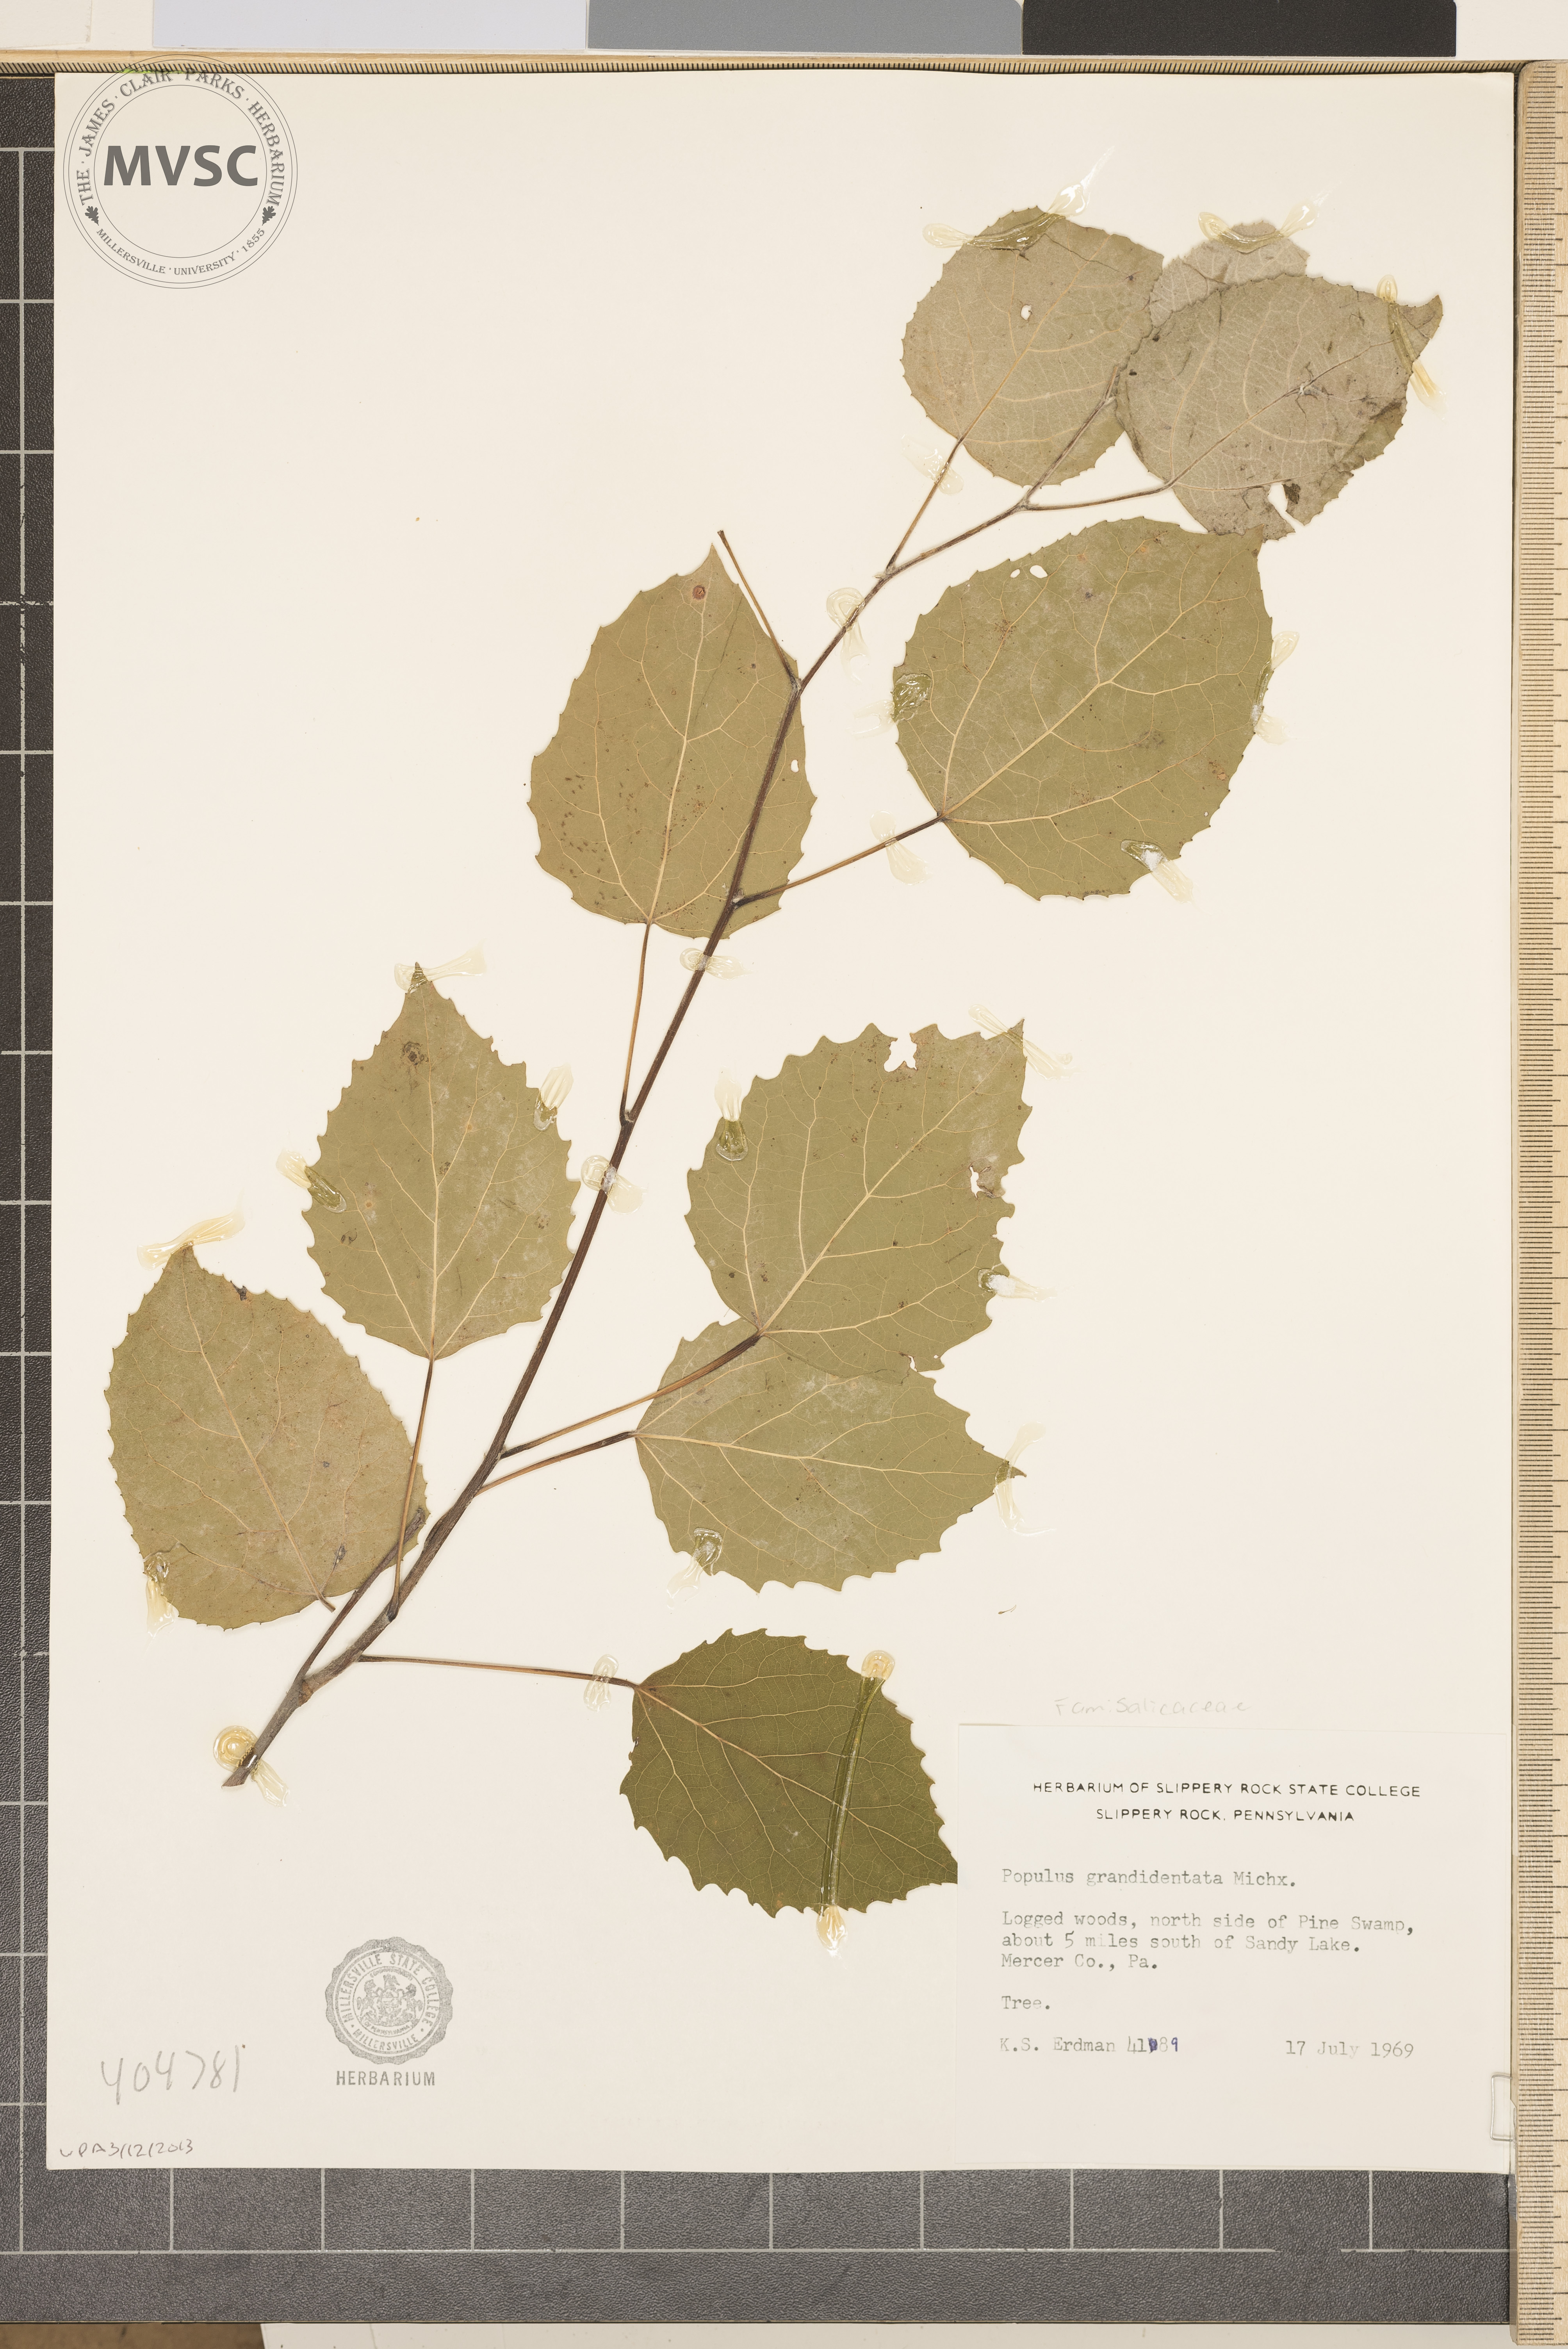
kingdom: Plantae
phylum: Tracheophyta
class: Magnoliopsida
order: Malpighiales
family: Salicaceae
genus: Populus
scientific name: Populus grandidentata
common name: Bigtooth aspen
